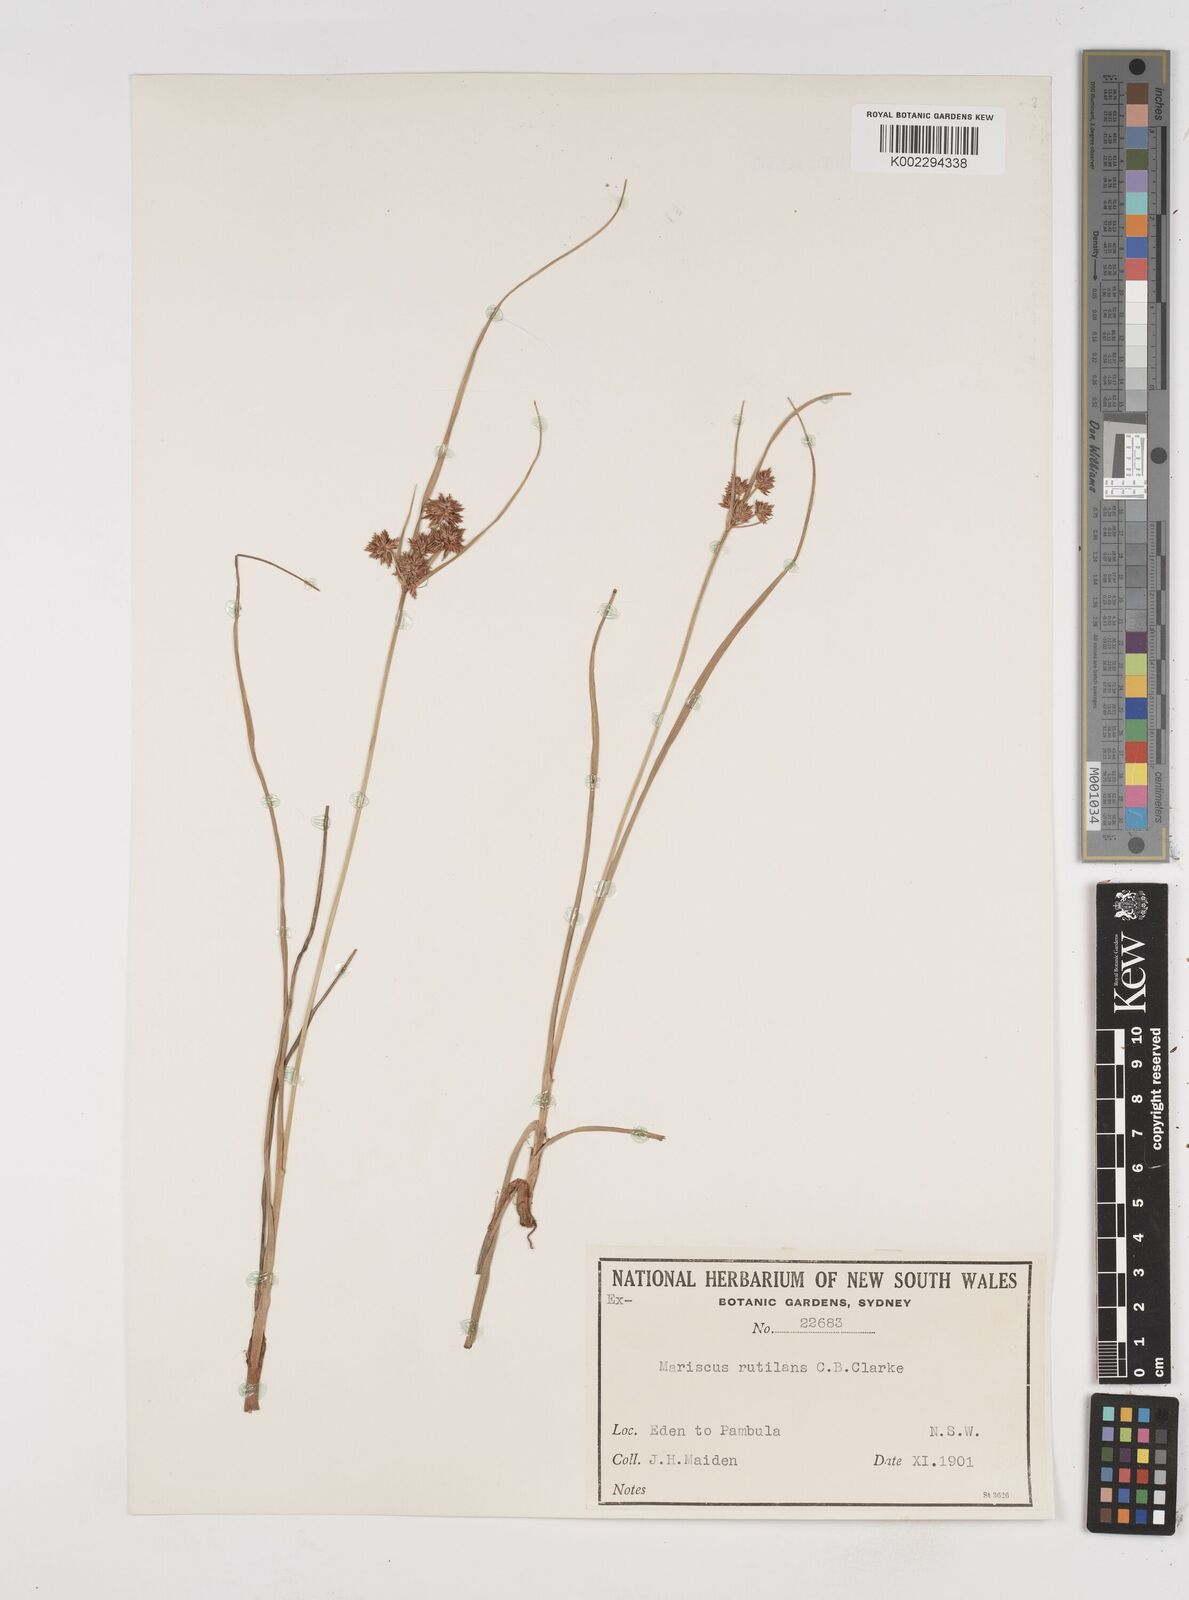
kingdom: Plantae
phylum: Tracheophyta
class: Liliopsida
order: Poales
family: Cyperaceae
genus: Cyperus
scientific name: Cyperus lhotskyanus
